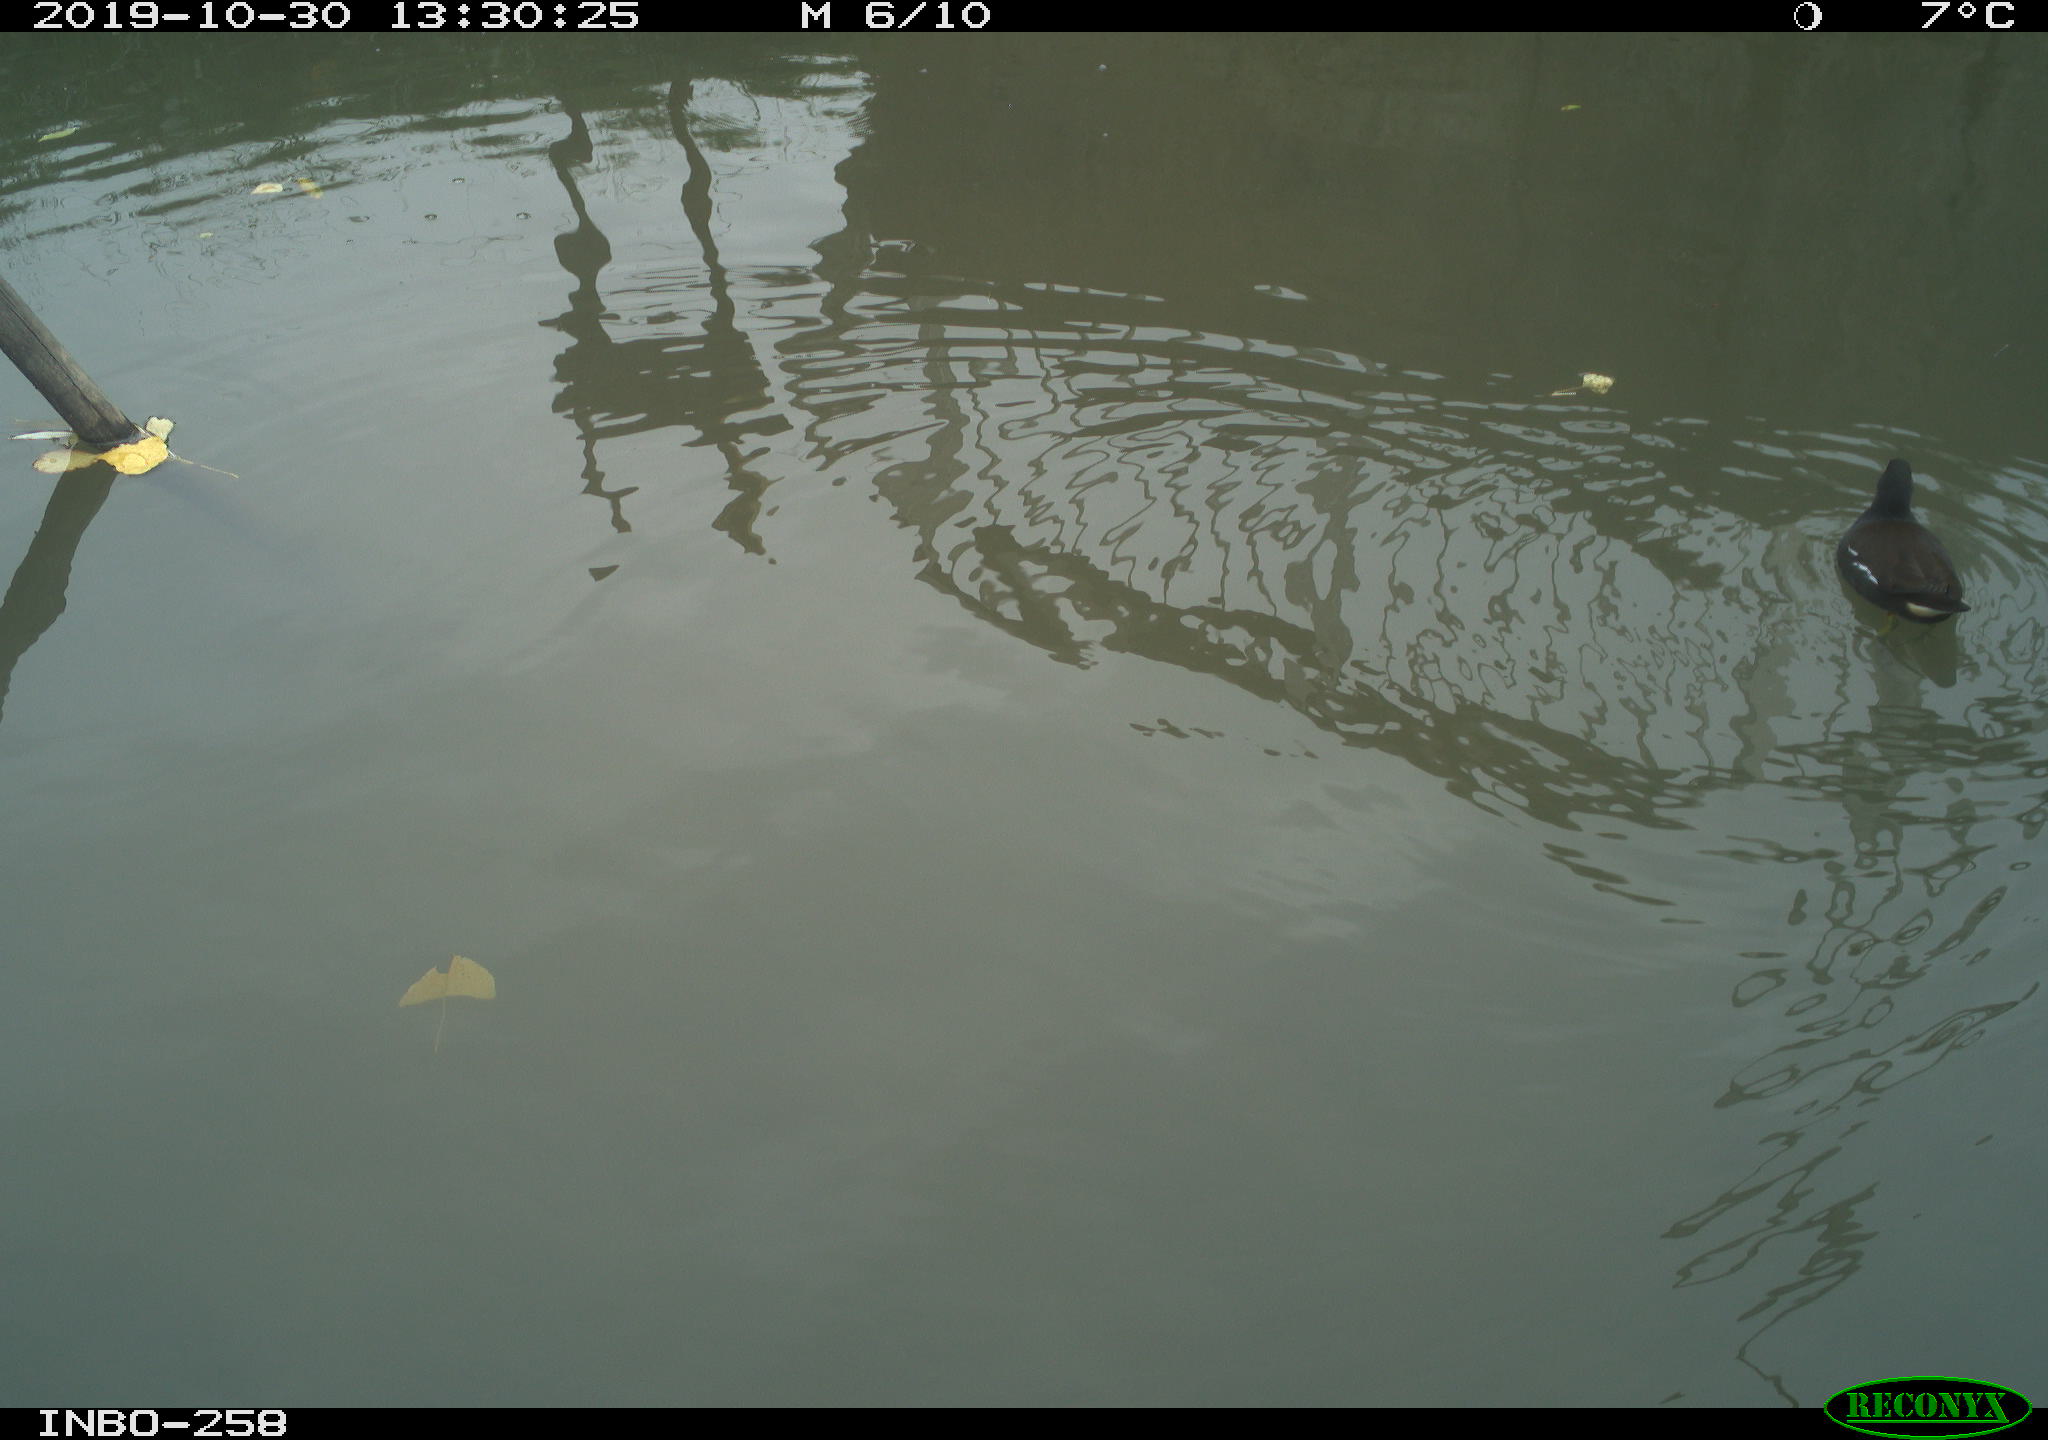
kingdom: Animalia
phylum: Chordata
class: Aves
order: Gruiformes
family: Rallidae
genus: Gallinula
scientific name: Gallinula chloropus
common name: Common moorhen
